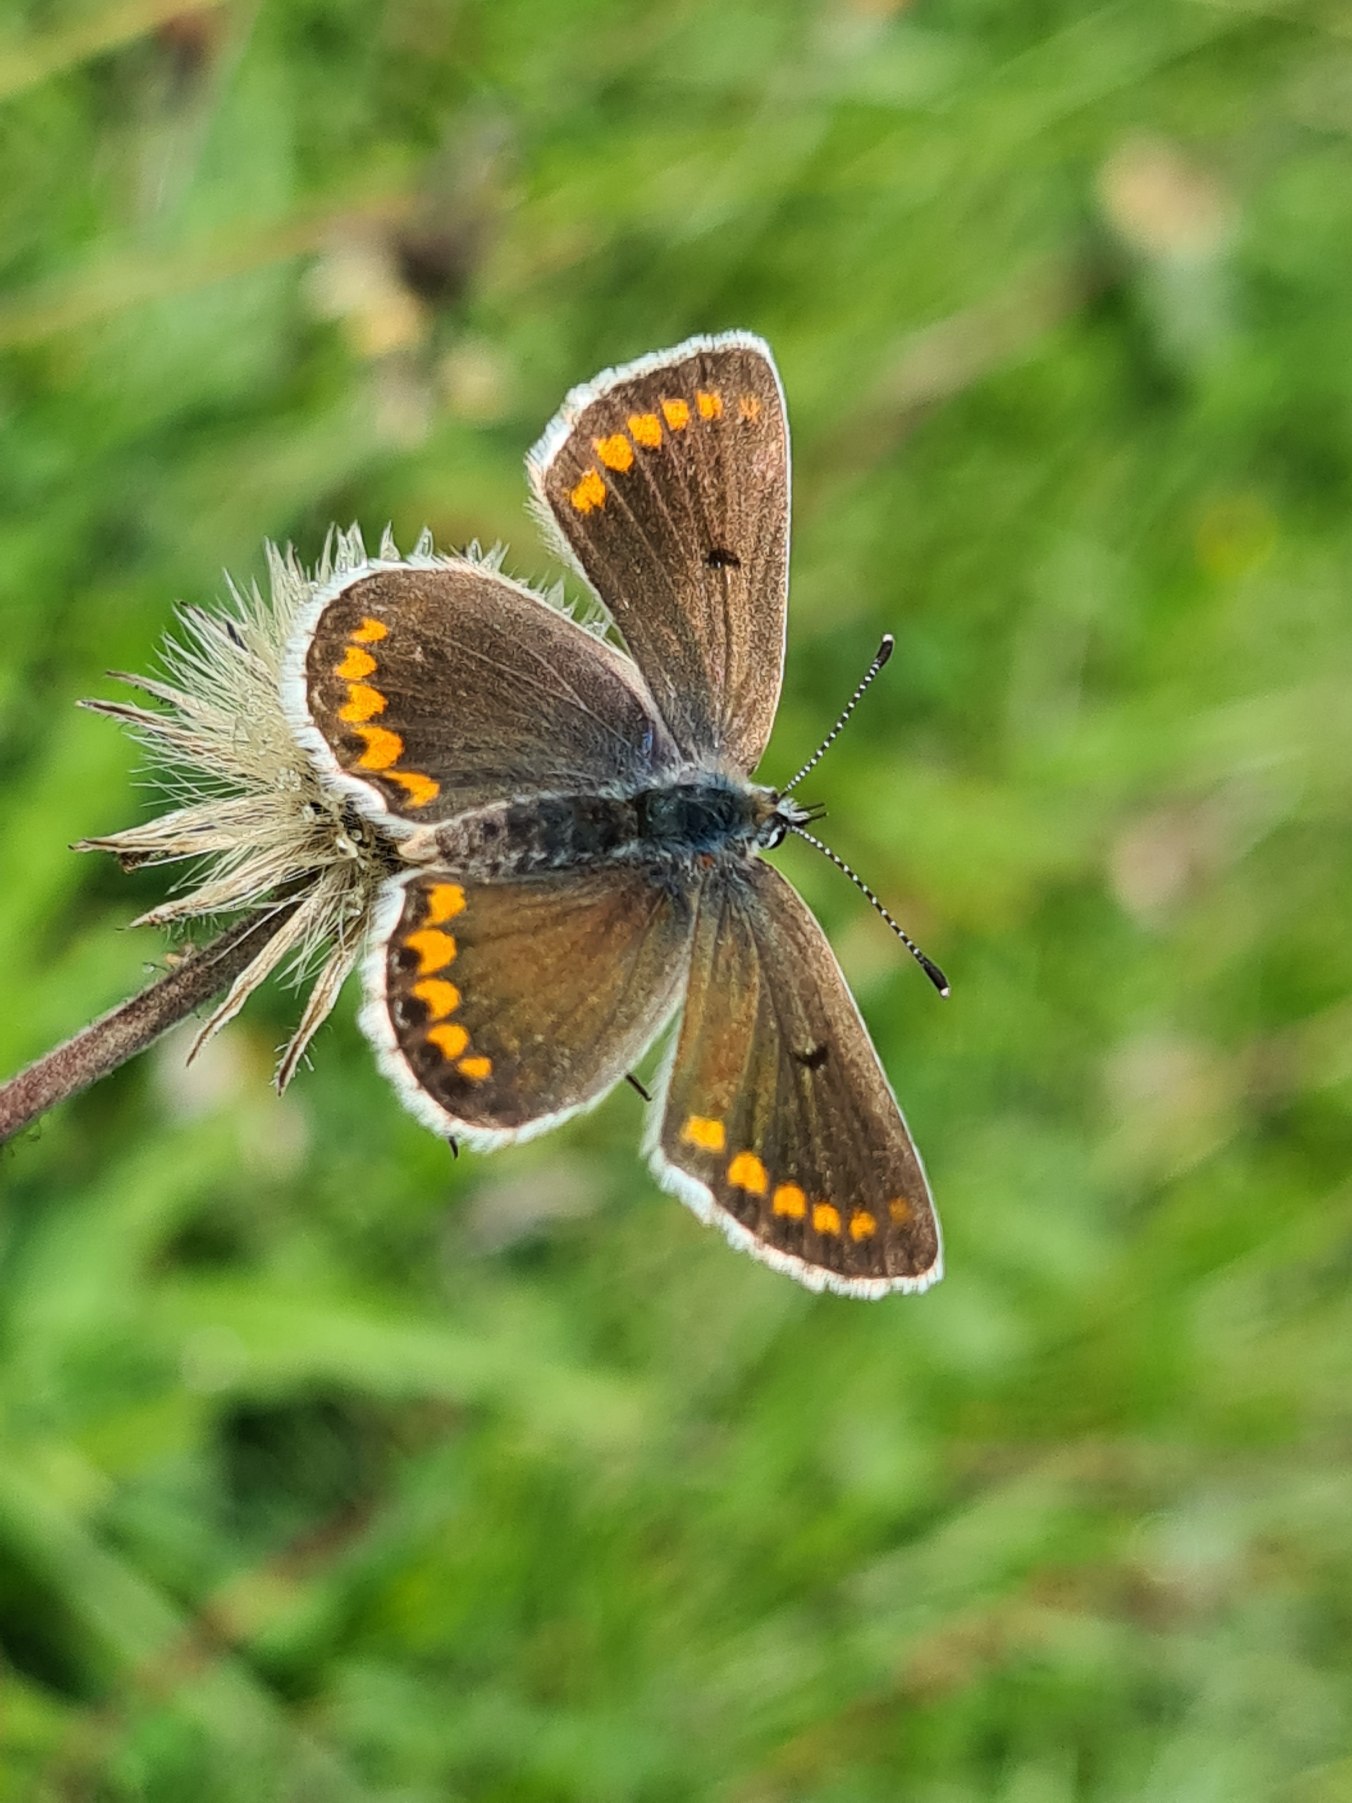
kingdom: Animalia
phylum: Arthropoda
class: Insecta
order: Lepidoptera
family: Lycaenidae
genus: Aricia
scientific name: Aricia agestis
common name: Rødplettet blåfugl
